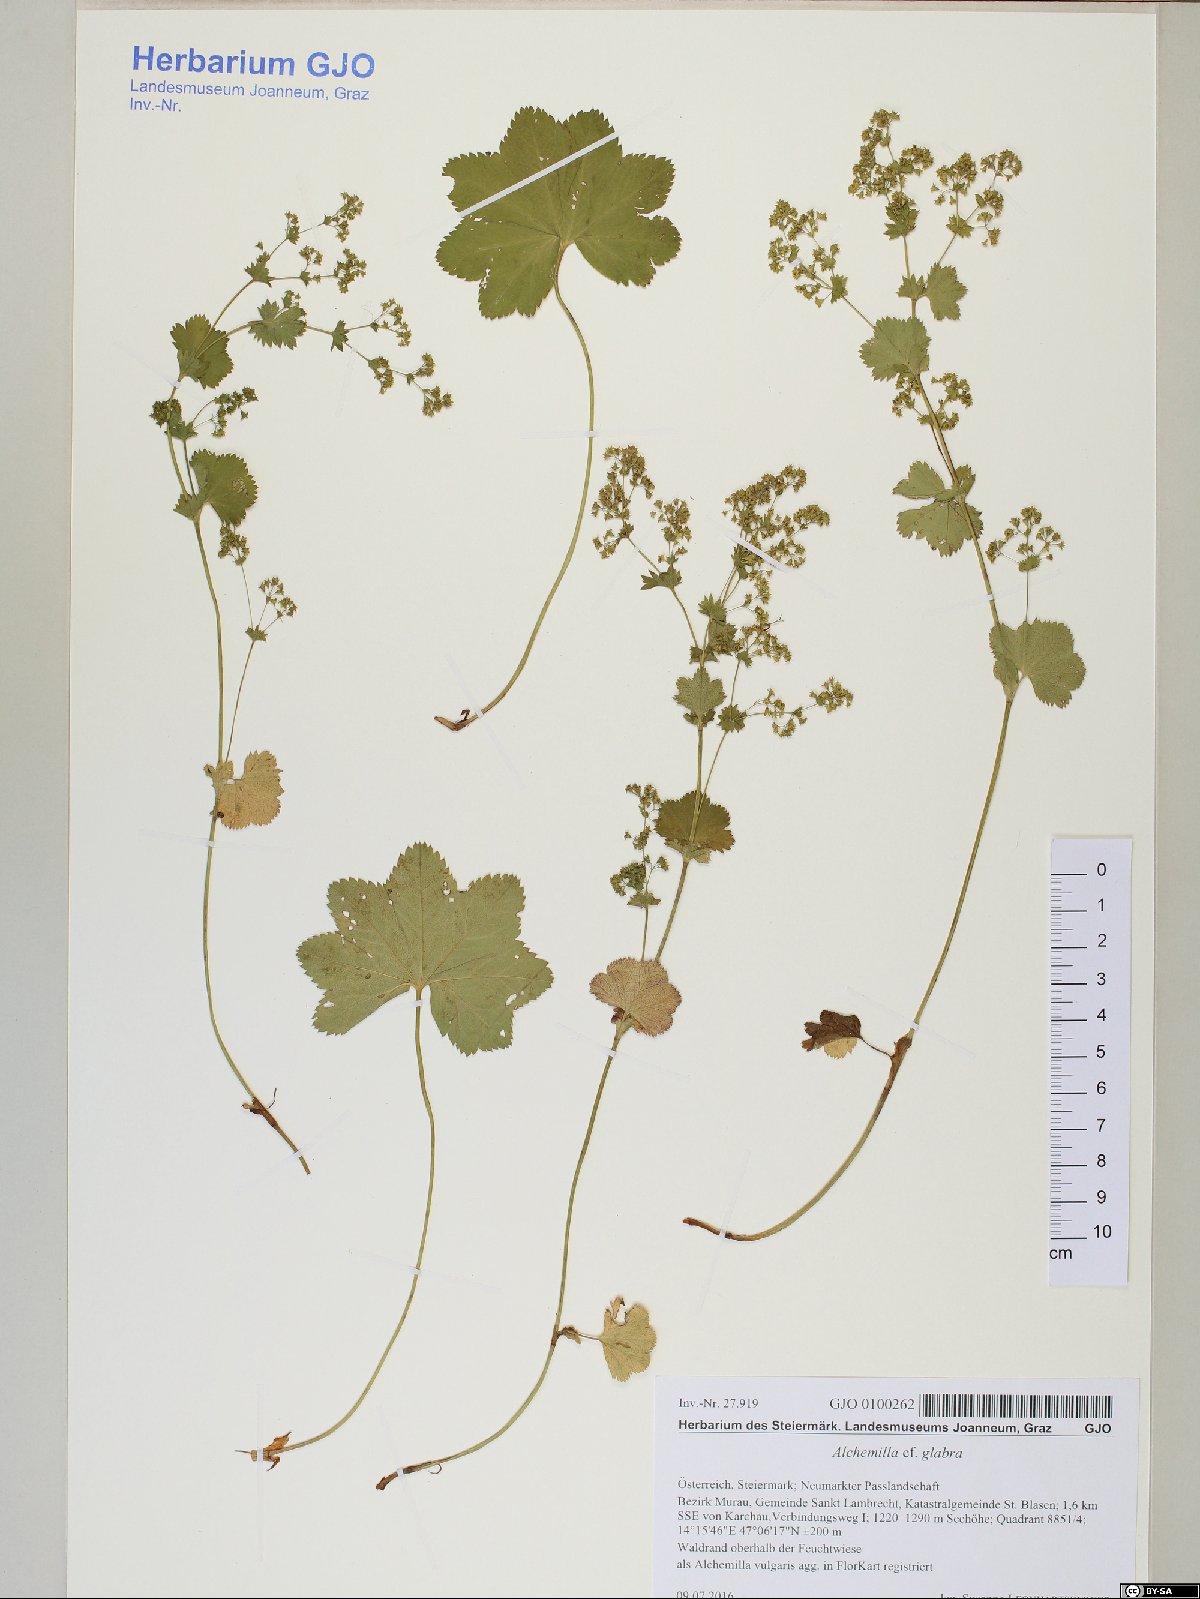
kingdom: Plantae
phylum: Tracheophyta
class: Magnoliopsida
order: Rosales
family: Rosaceae
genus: Alchemilla
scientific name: Alchemilla glabra
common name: Smooth lady's-mantle
